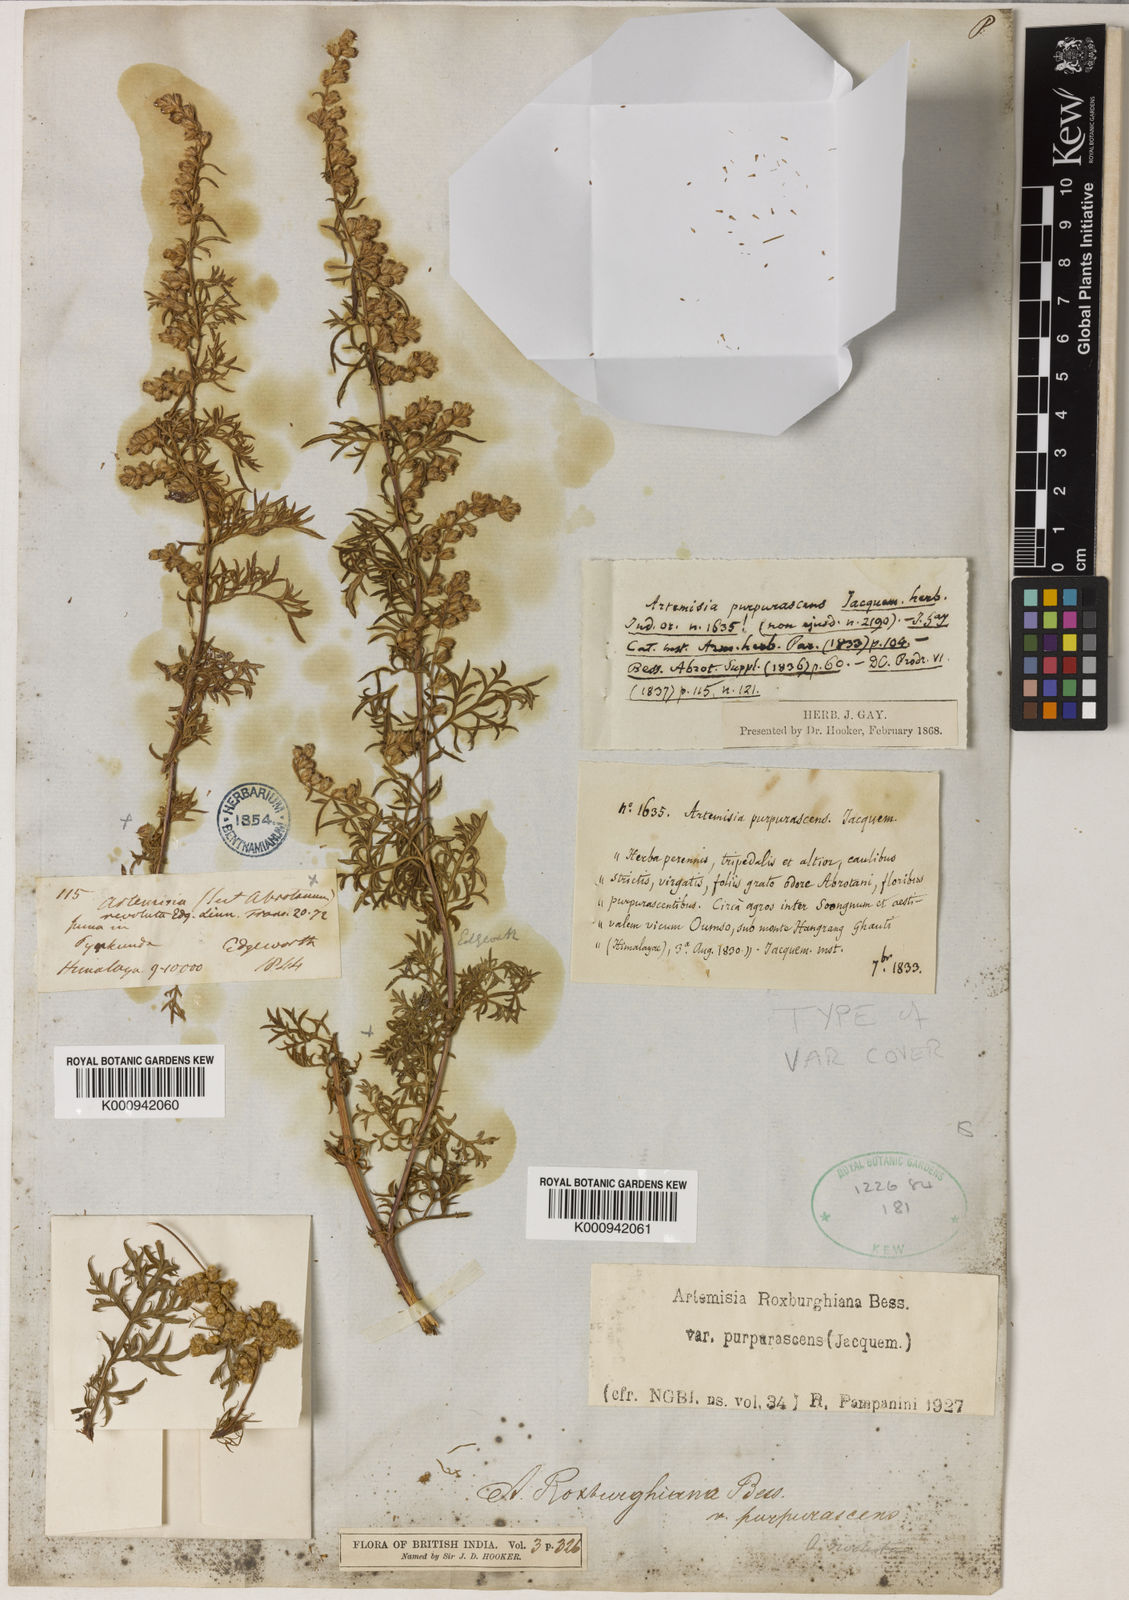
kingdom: Plantae
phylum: Tracheophyta
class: Magnoliopsida
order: Asterales
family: Asteraceae
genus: Artemisia
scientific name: Artemisia roxburghiana
